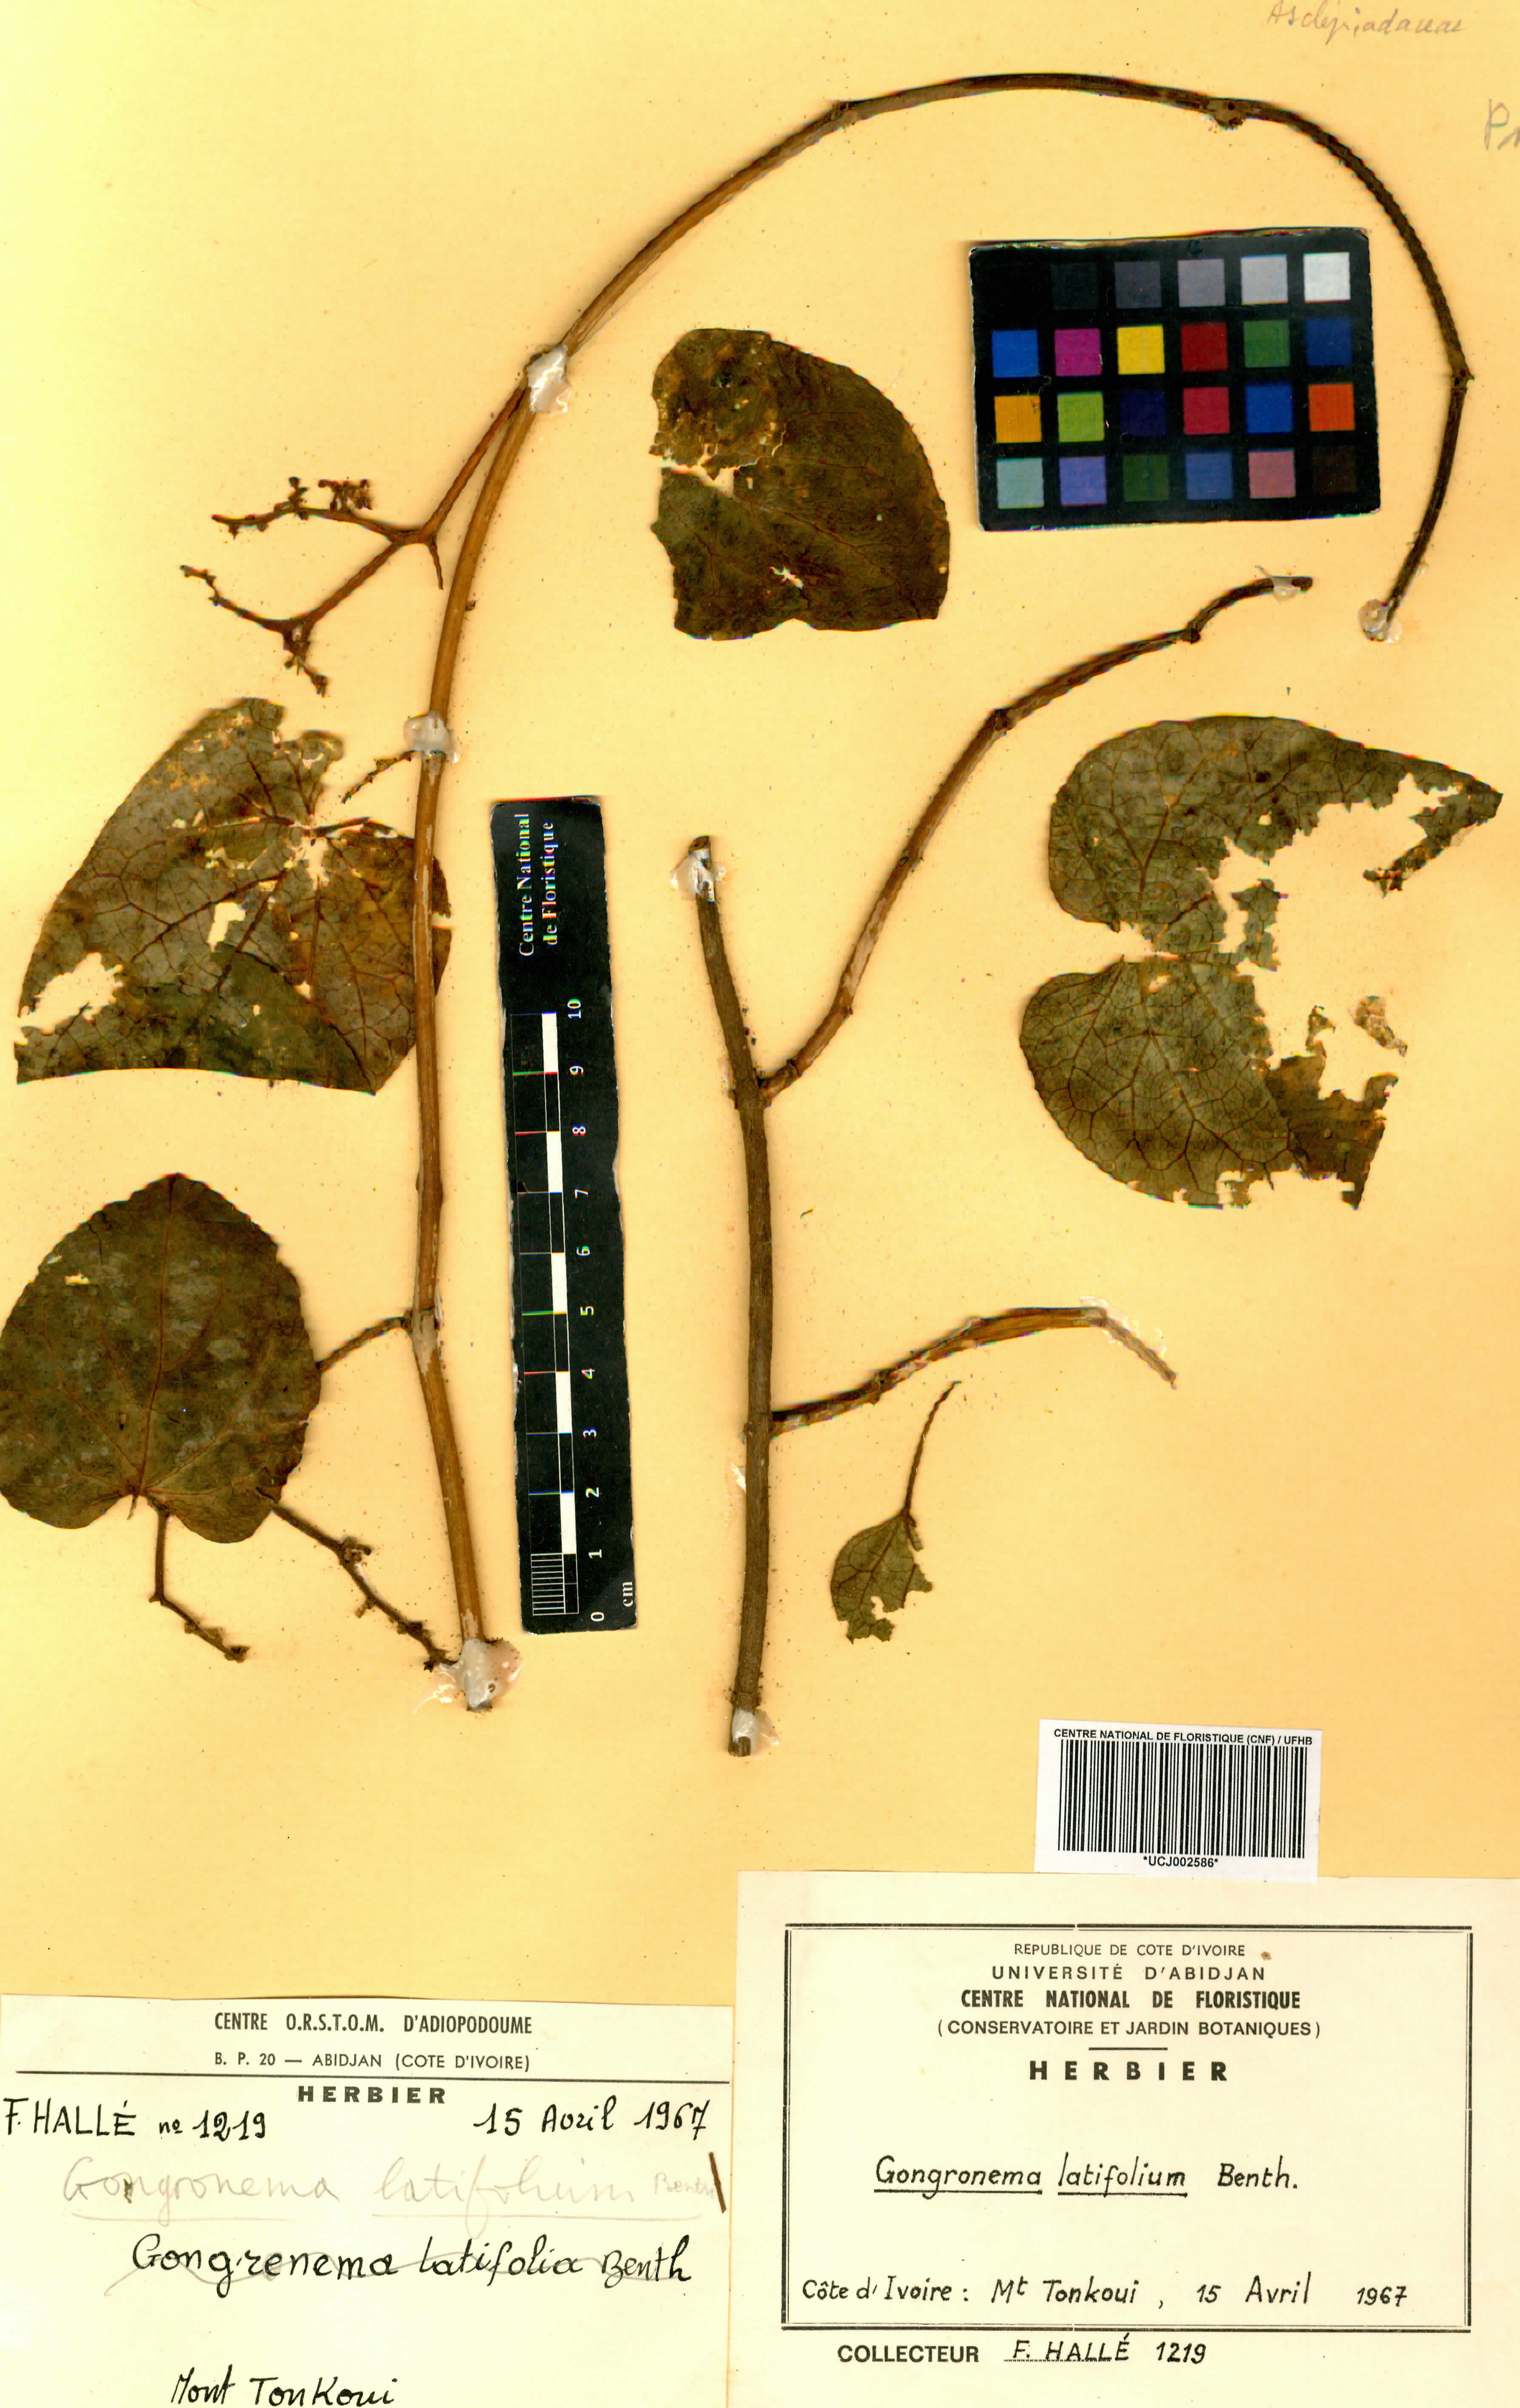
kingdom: Plantae
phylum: Tracheophyta
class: Magnoliopsida
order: Gentianales
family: Apocynaceae
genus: Gongronemopsis
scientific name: Gongronemopsis latifolia
